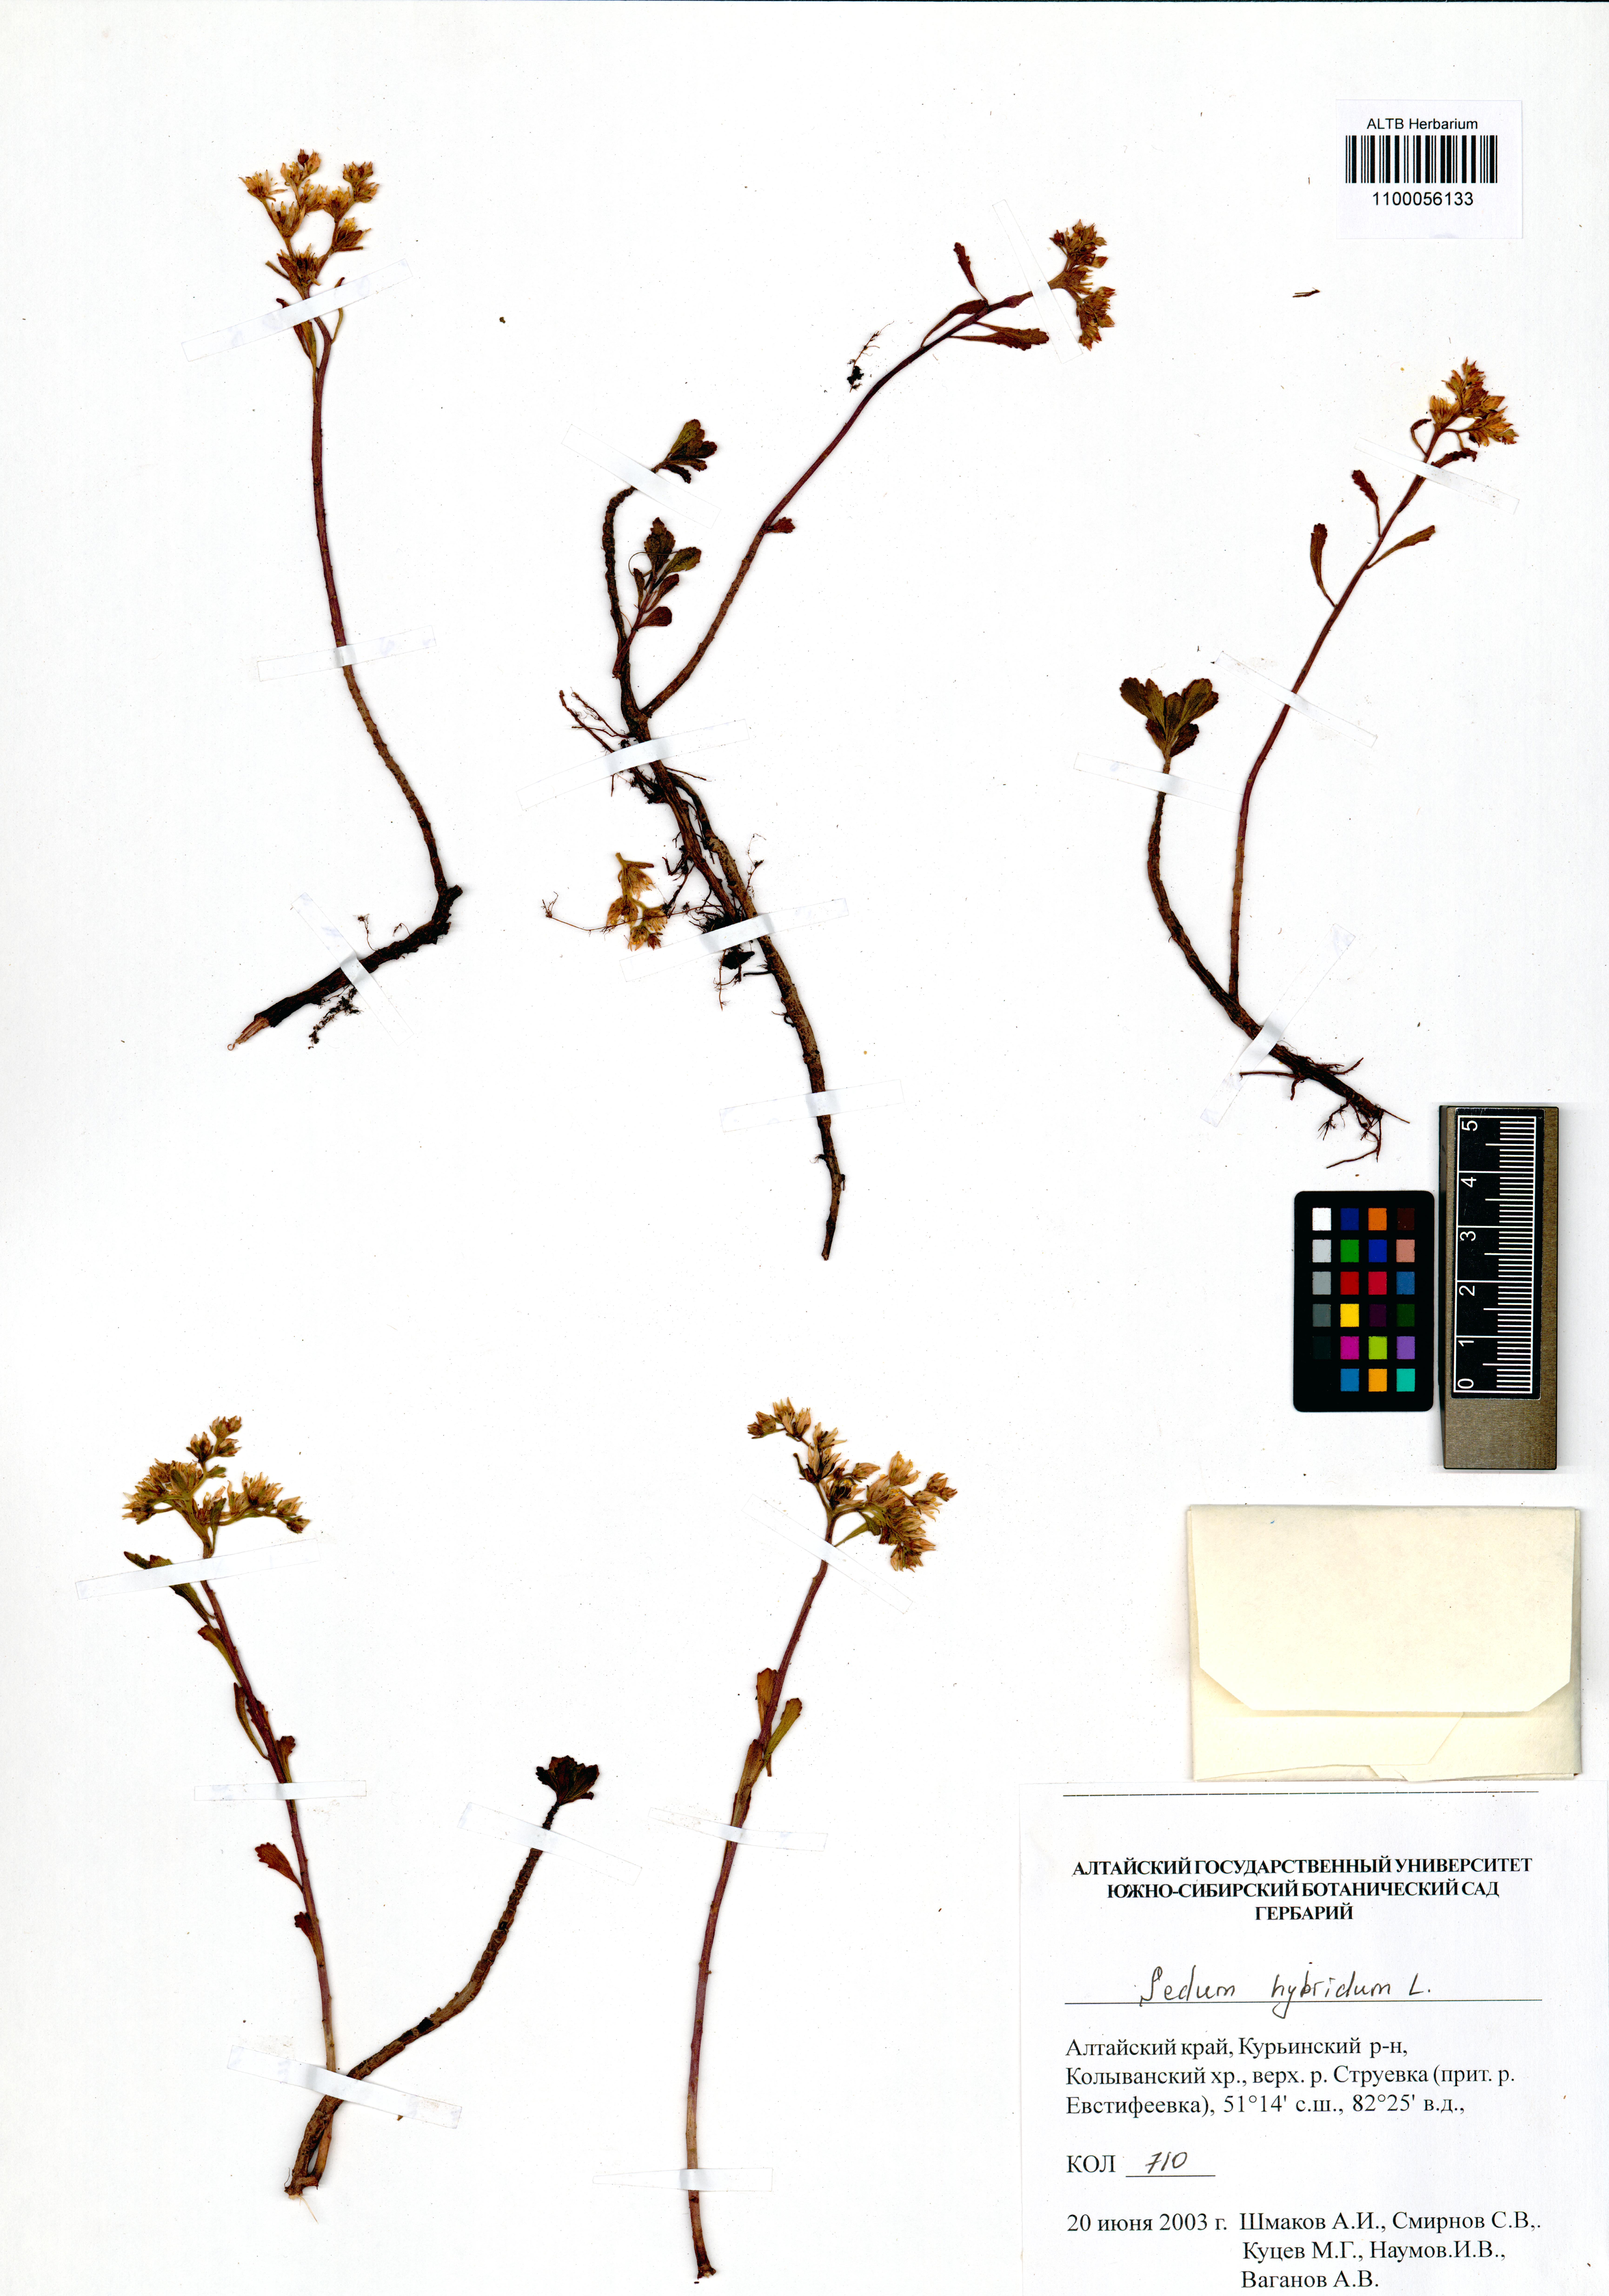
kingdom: Plantae
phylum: Tracheophyta
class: Magnoliopsida
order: Saxifragales
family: Crassulaceae
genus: Phedimus
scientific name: Phedimus hybridus
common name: Hybrid stonecrop
